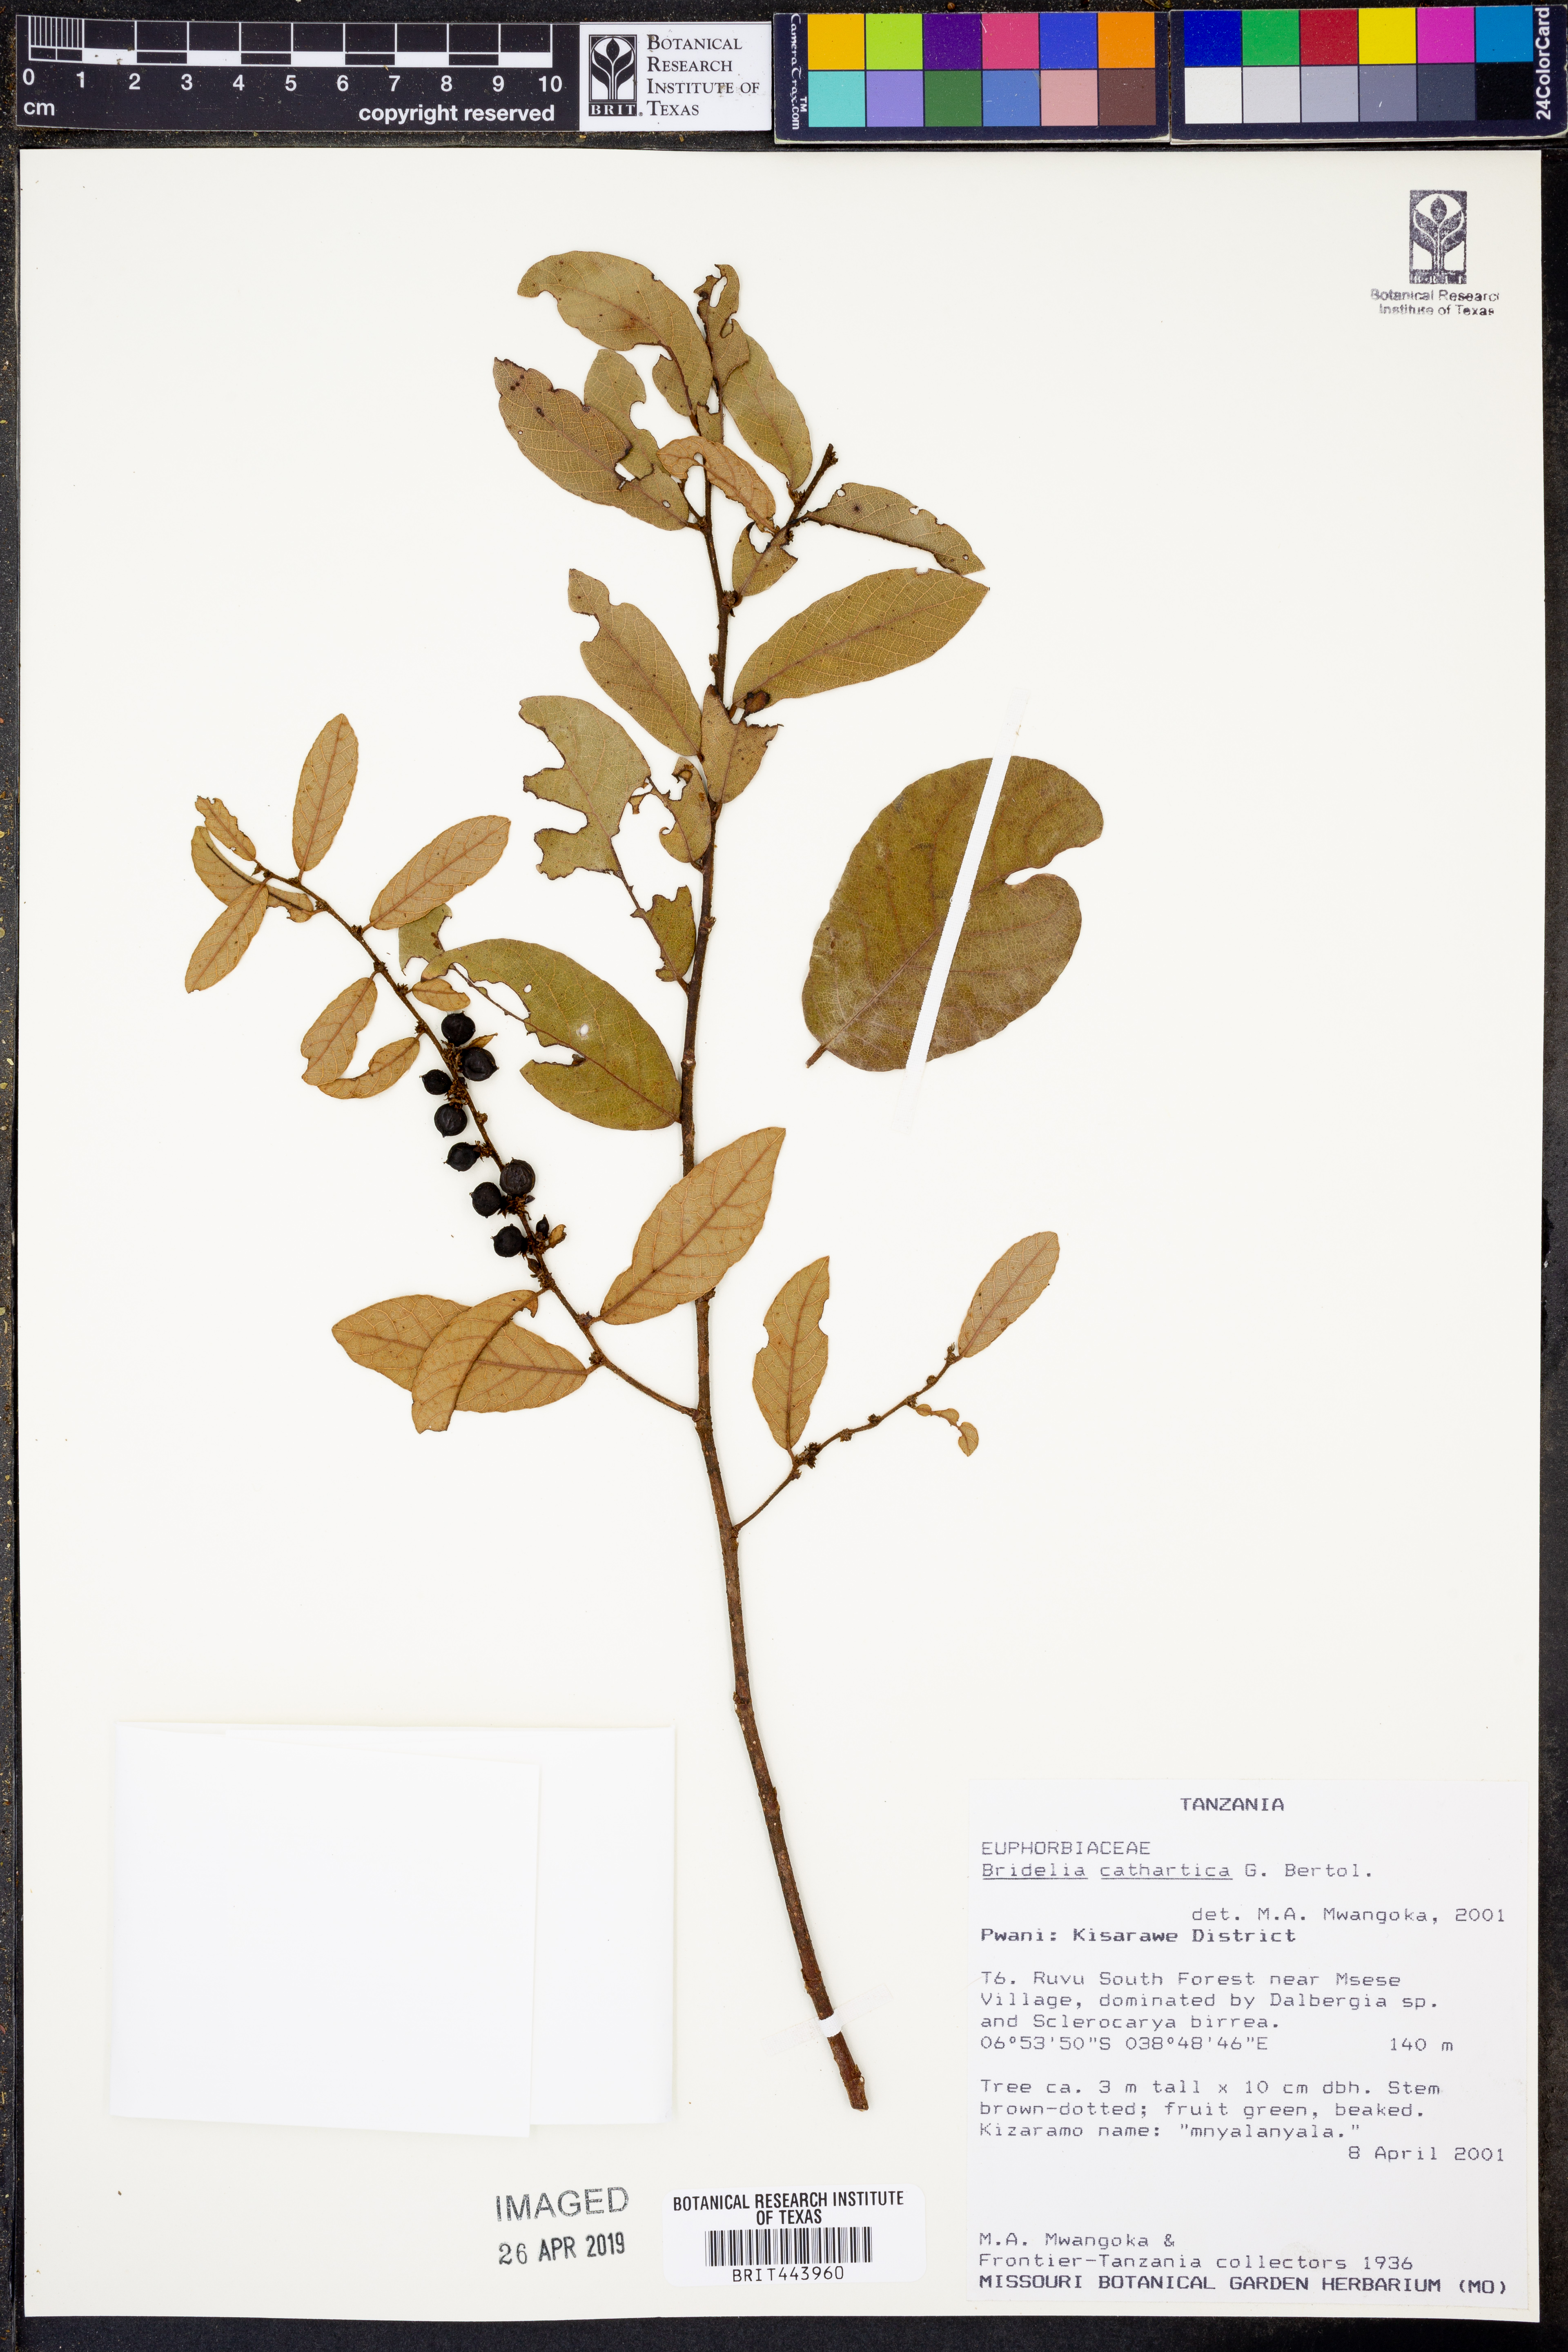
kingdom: Plantae
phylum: Tracheophyta
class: Magnoliopsida
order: Malpighiales
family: Phyllanthaceae
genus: Bridelia
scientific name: Bridelia cathartica
